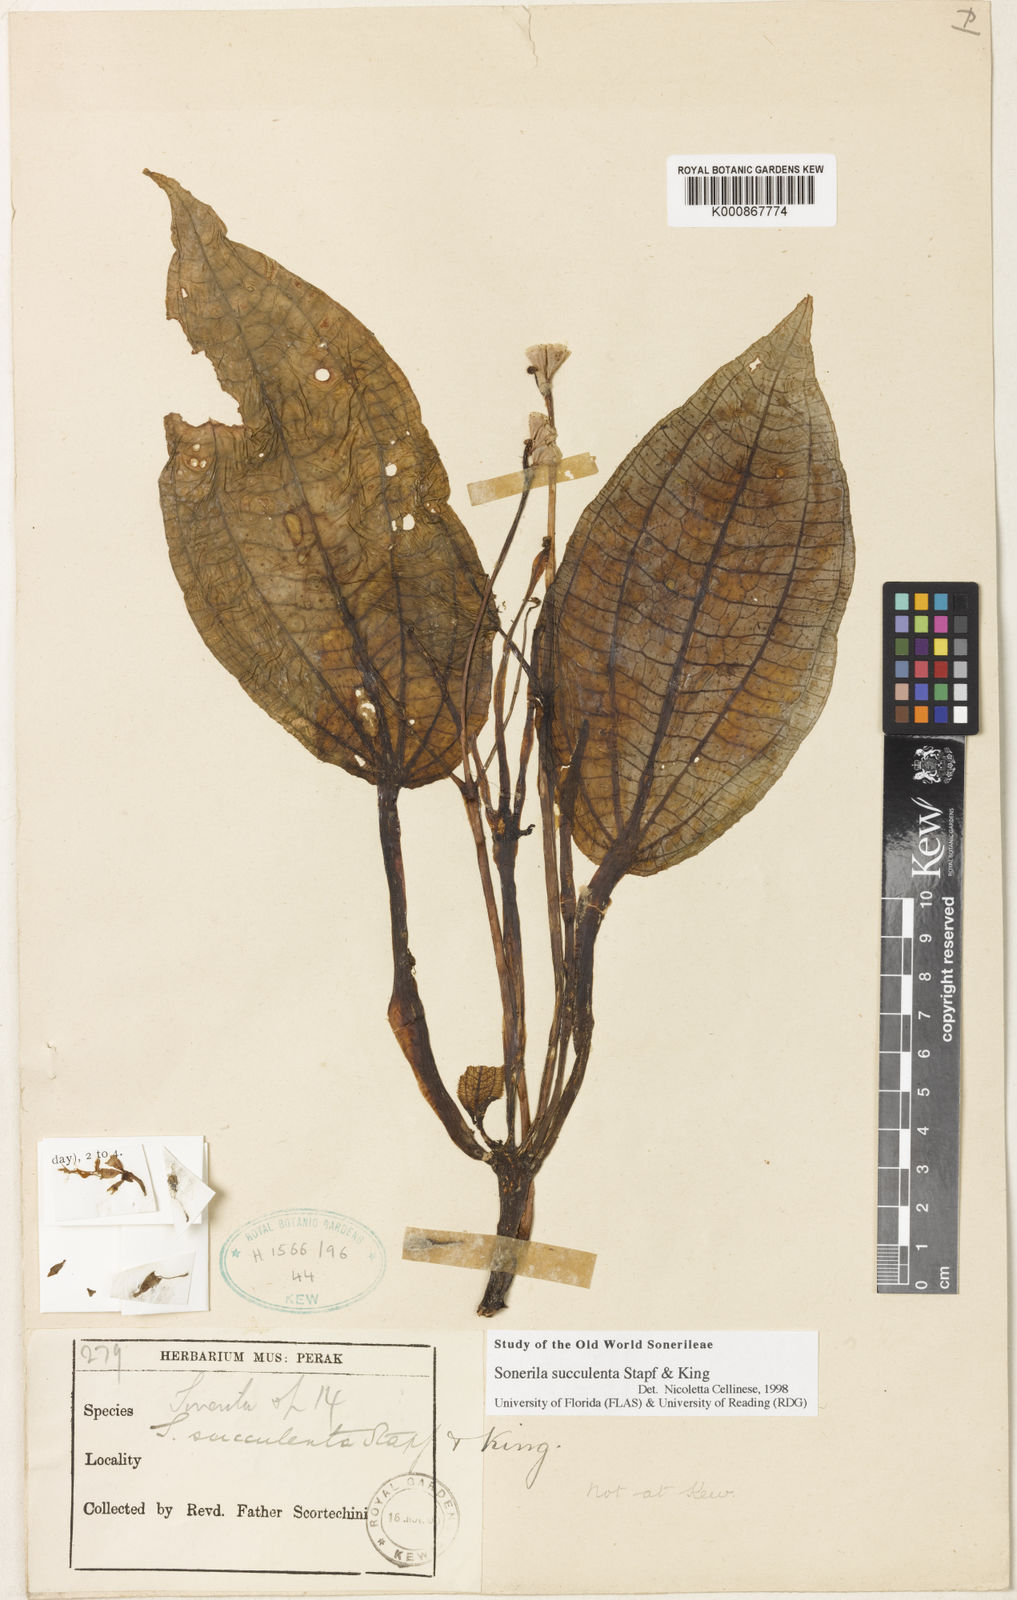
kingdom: Plantae
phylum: Tracheophyta
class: Magnoliopsida
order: Myrtales
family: Melastomataceae
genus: Sonerila
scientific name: Sonerila succulenta
